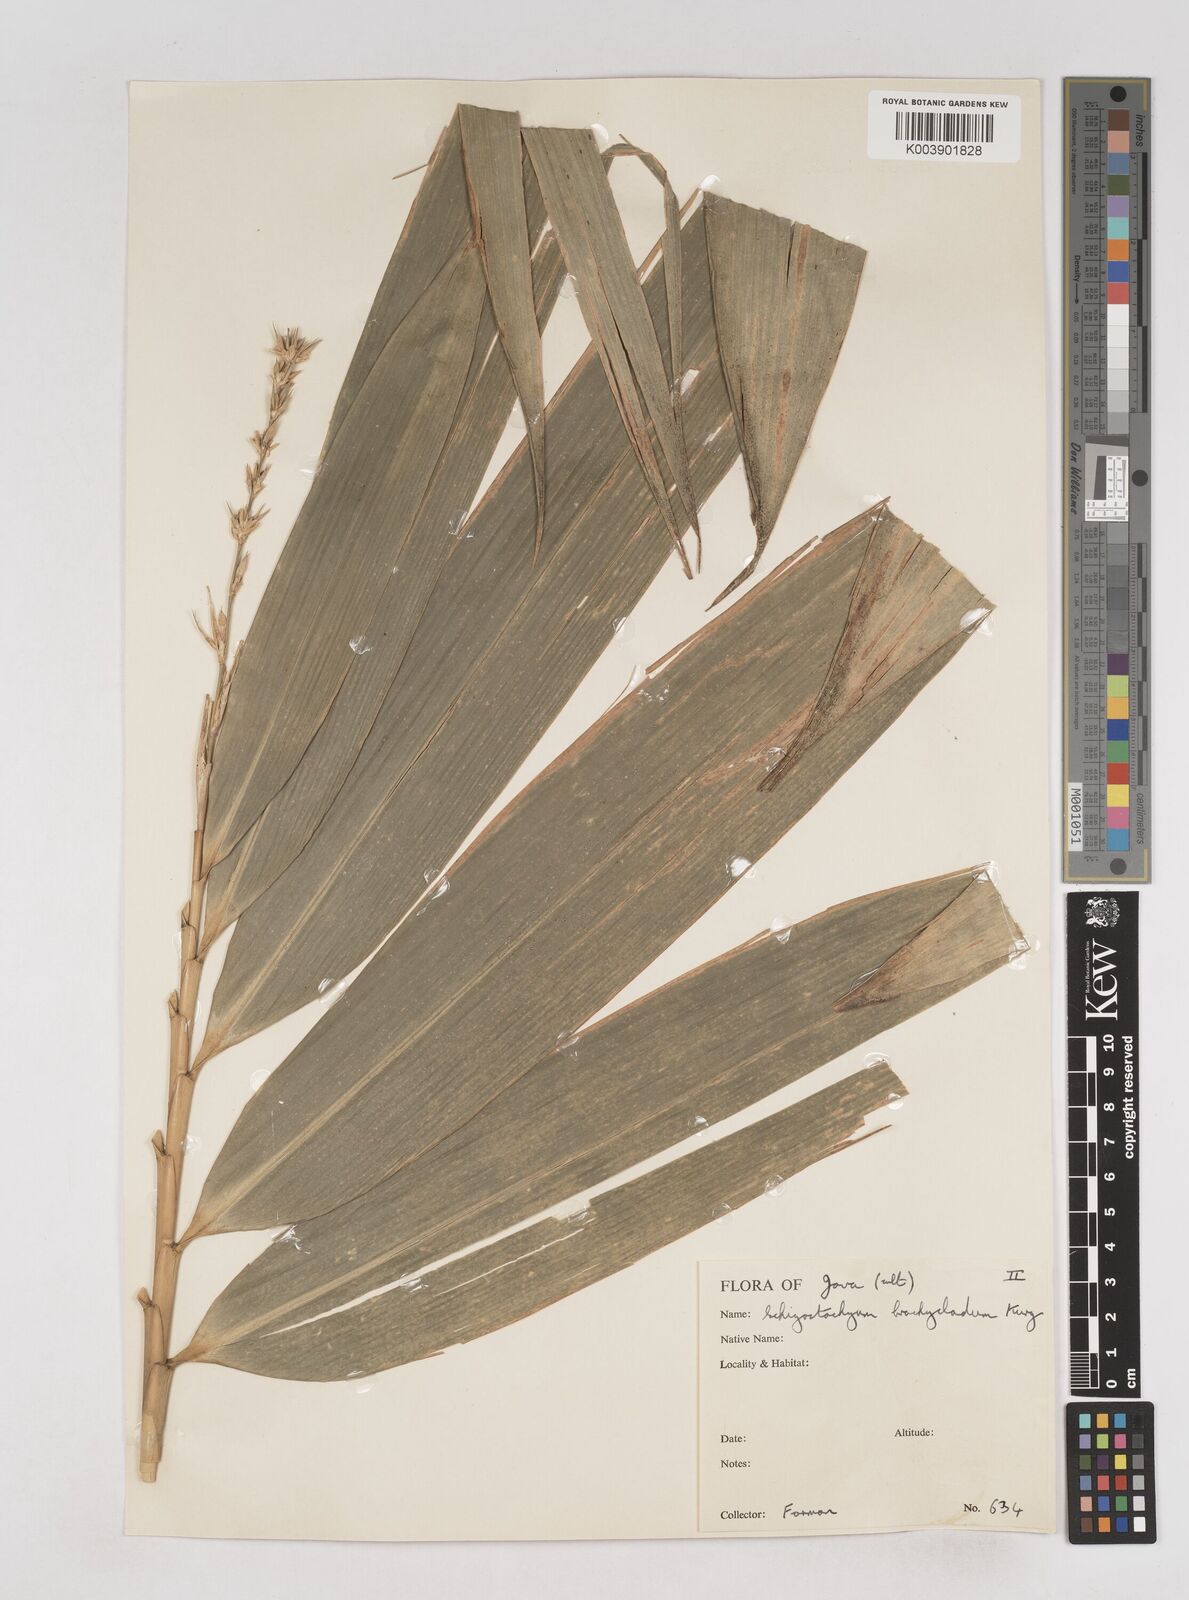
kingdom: Plantae
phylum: Tracheophyta
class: Liliopsida
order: Poales
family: Poaceae
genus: Schizostachyum
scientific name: Schizostachyum brachycladum
